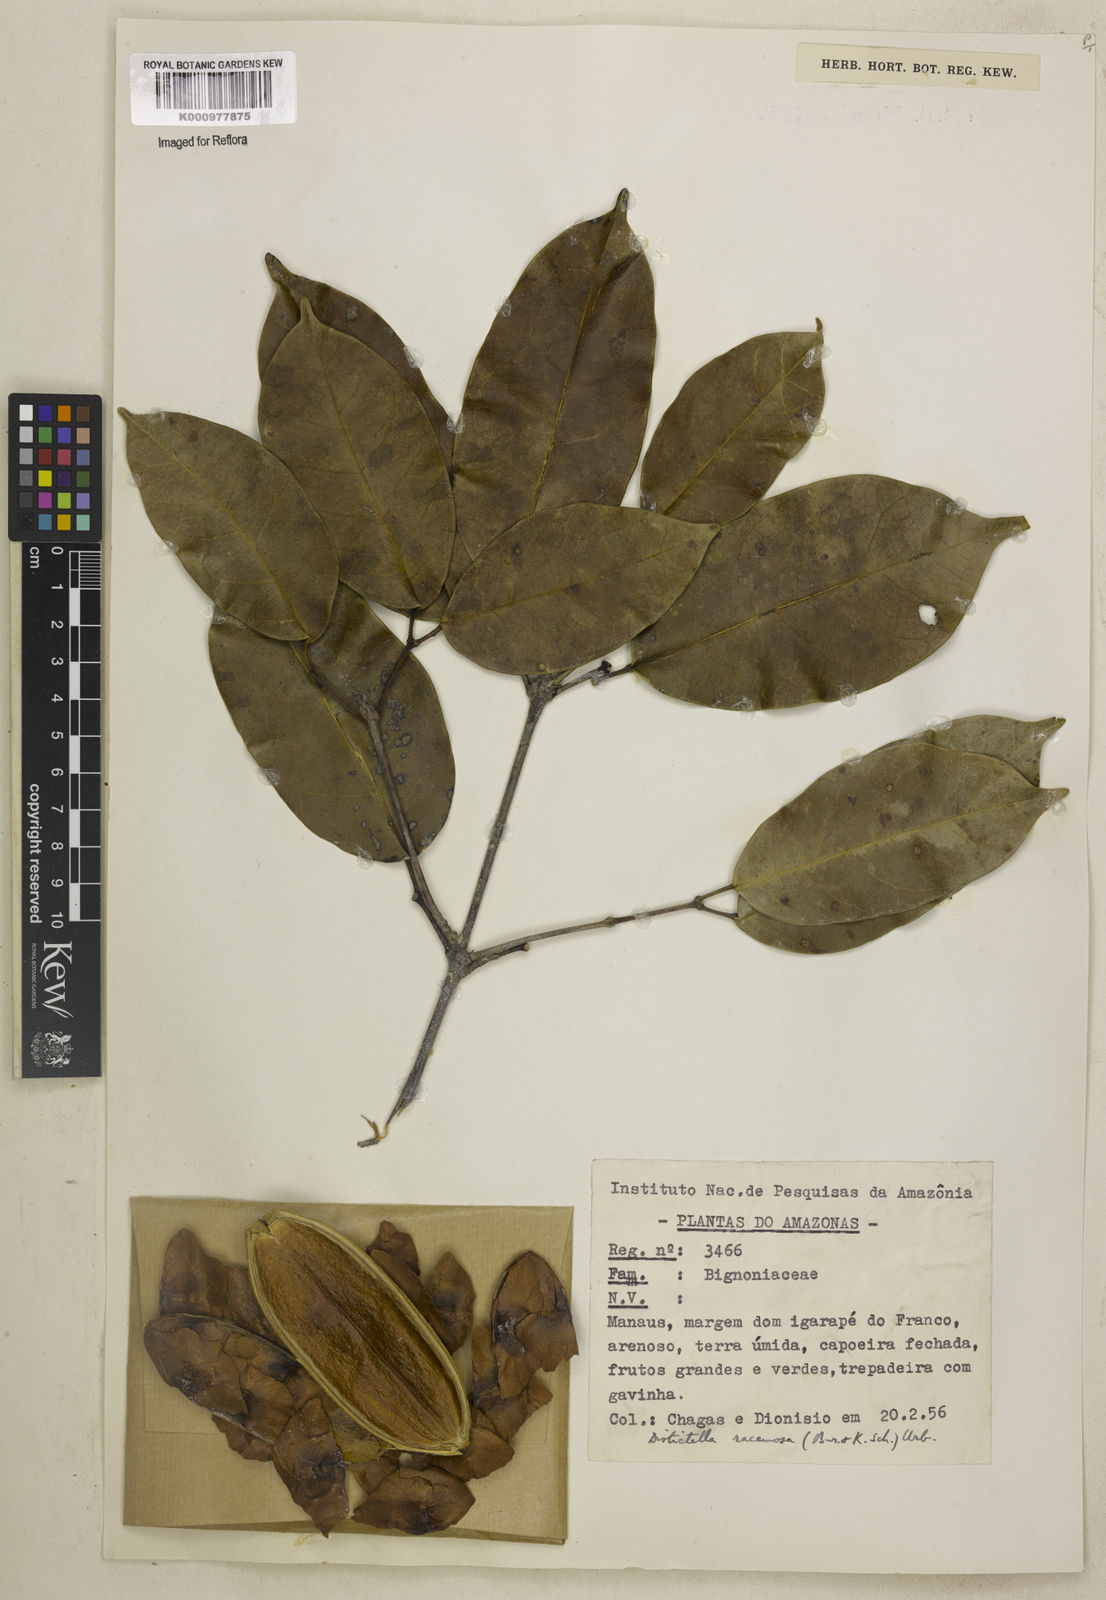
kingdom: Plantae
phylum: Tracheophyta
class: Magnoliopsida
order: Lamiales
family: Bignoniaceae
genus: Amphilophium
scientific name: Amphilophium racemosum
